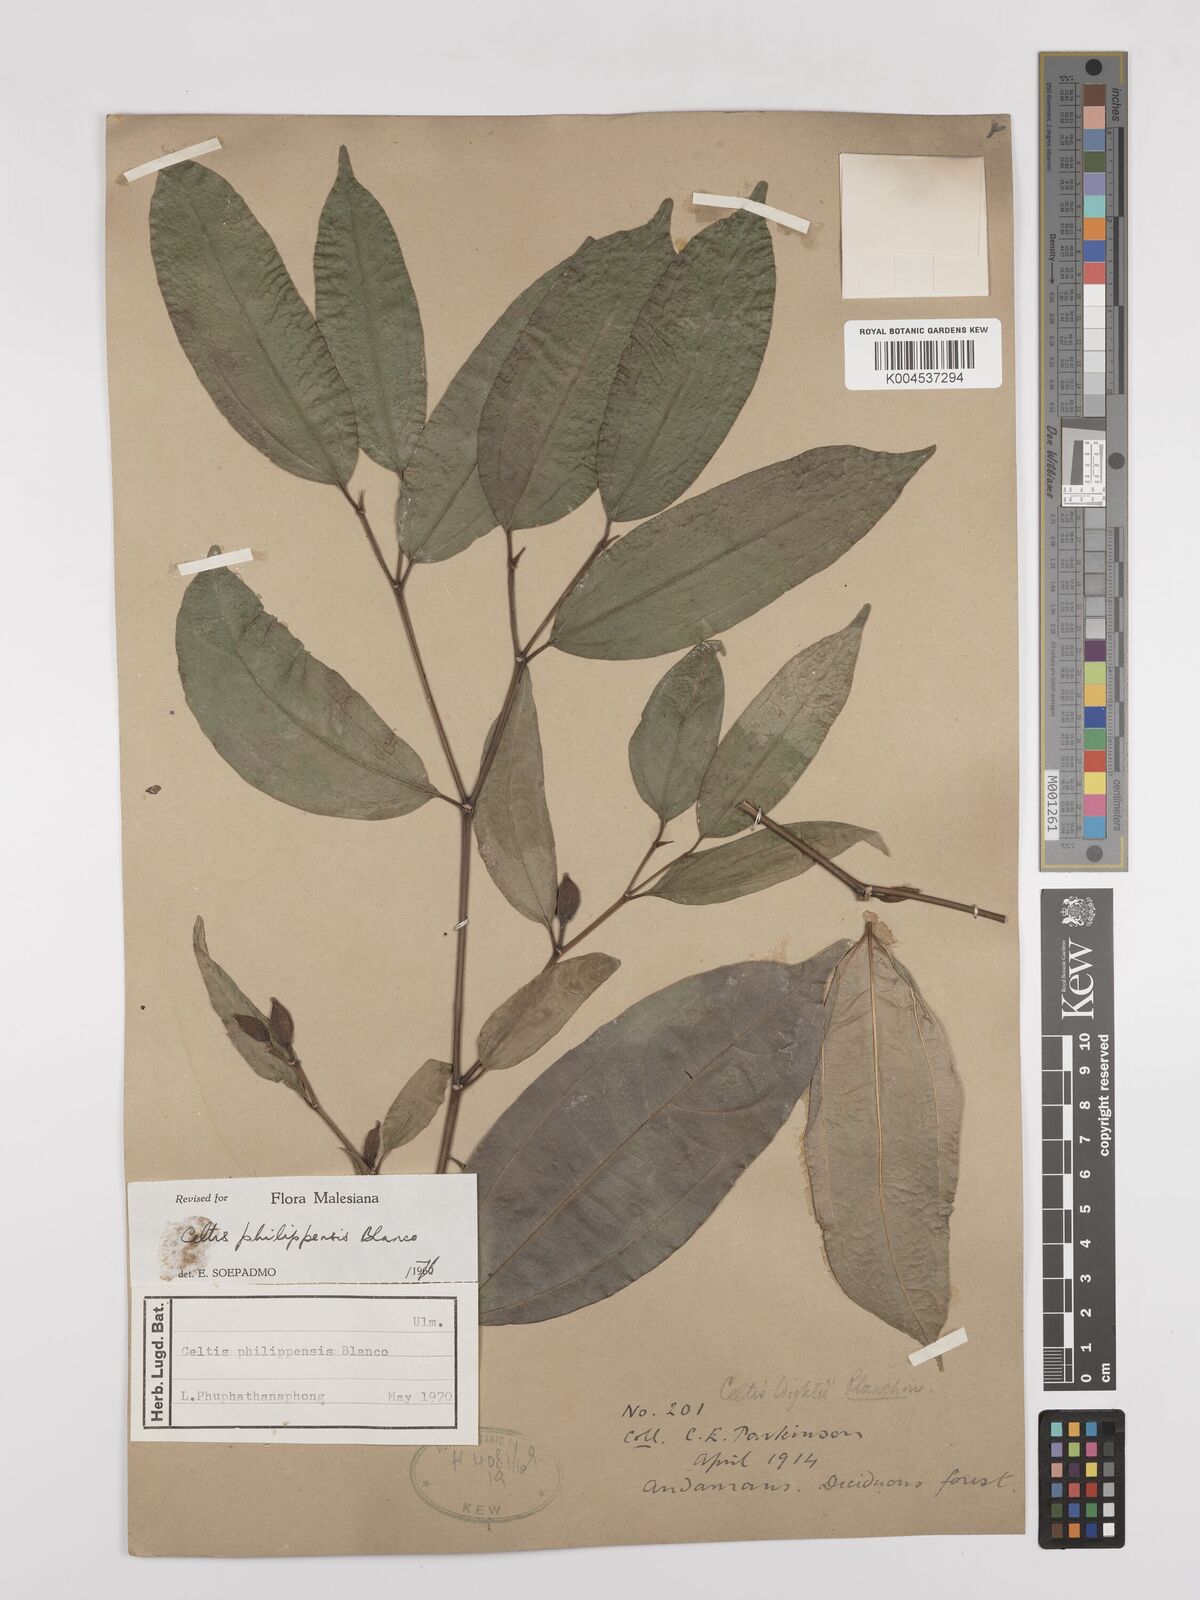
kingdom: Plantae
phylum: Tracheophyta
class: Magnoliopsida
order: Rosales
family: Cannabaceae
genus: Celtis
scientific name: Celtis philippensis
